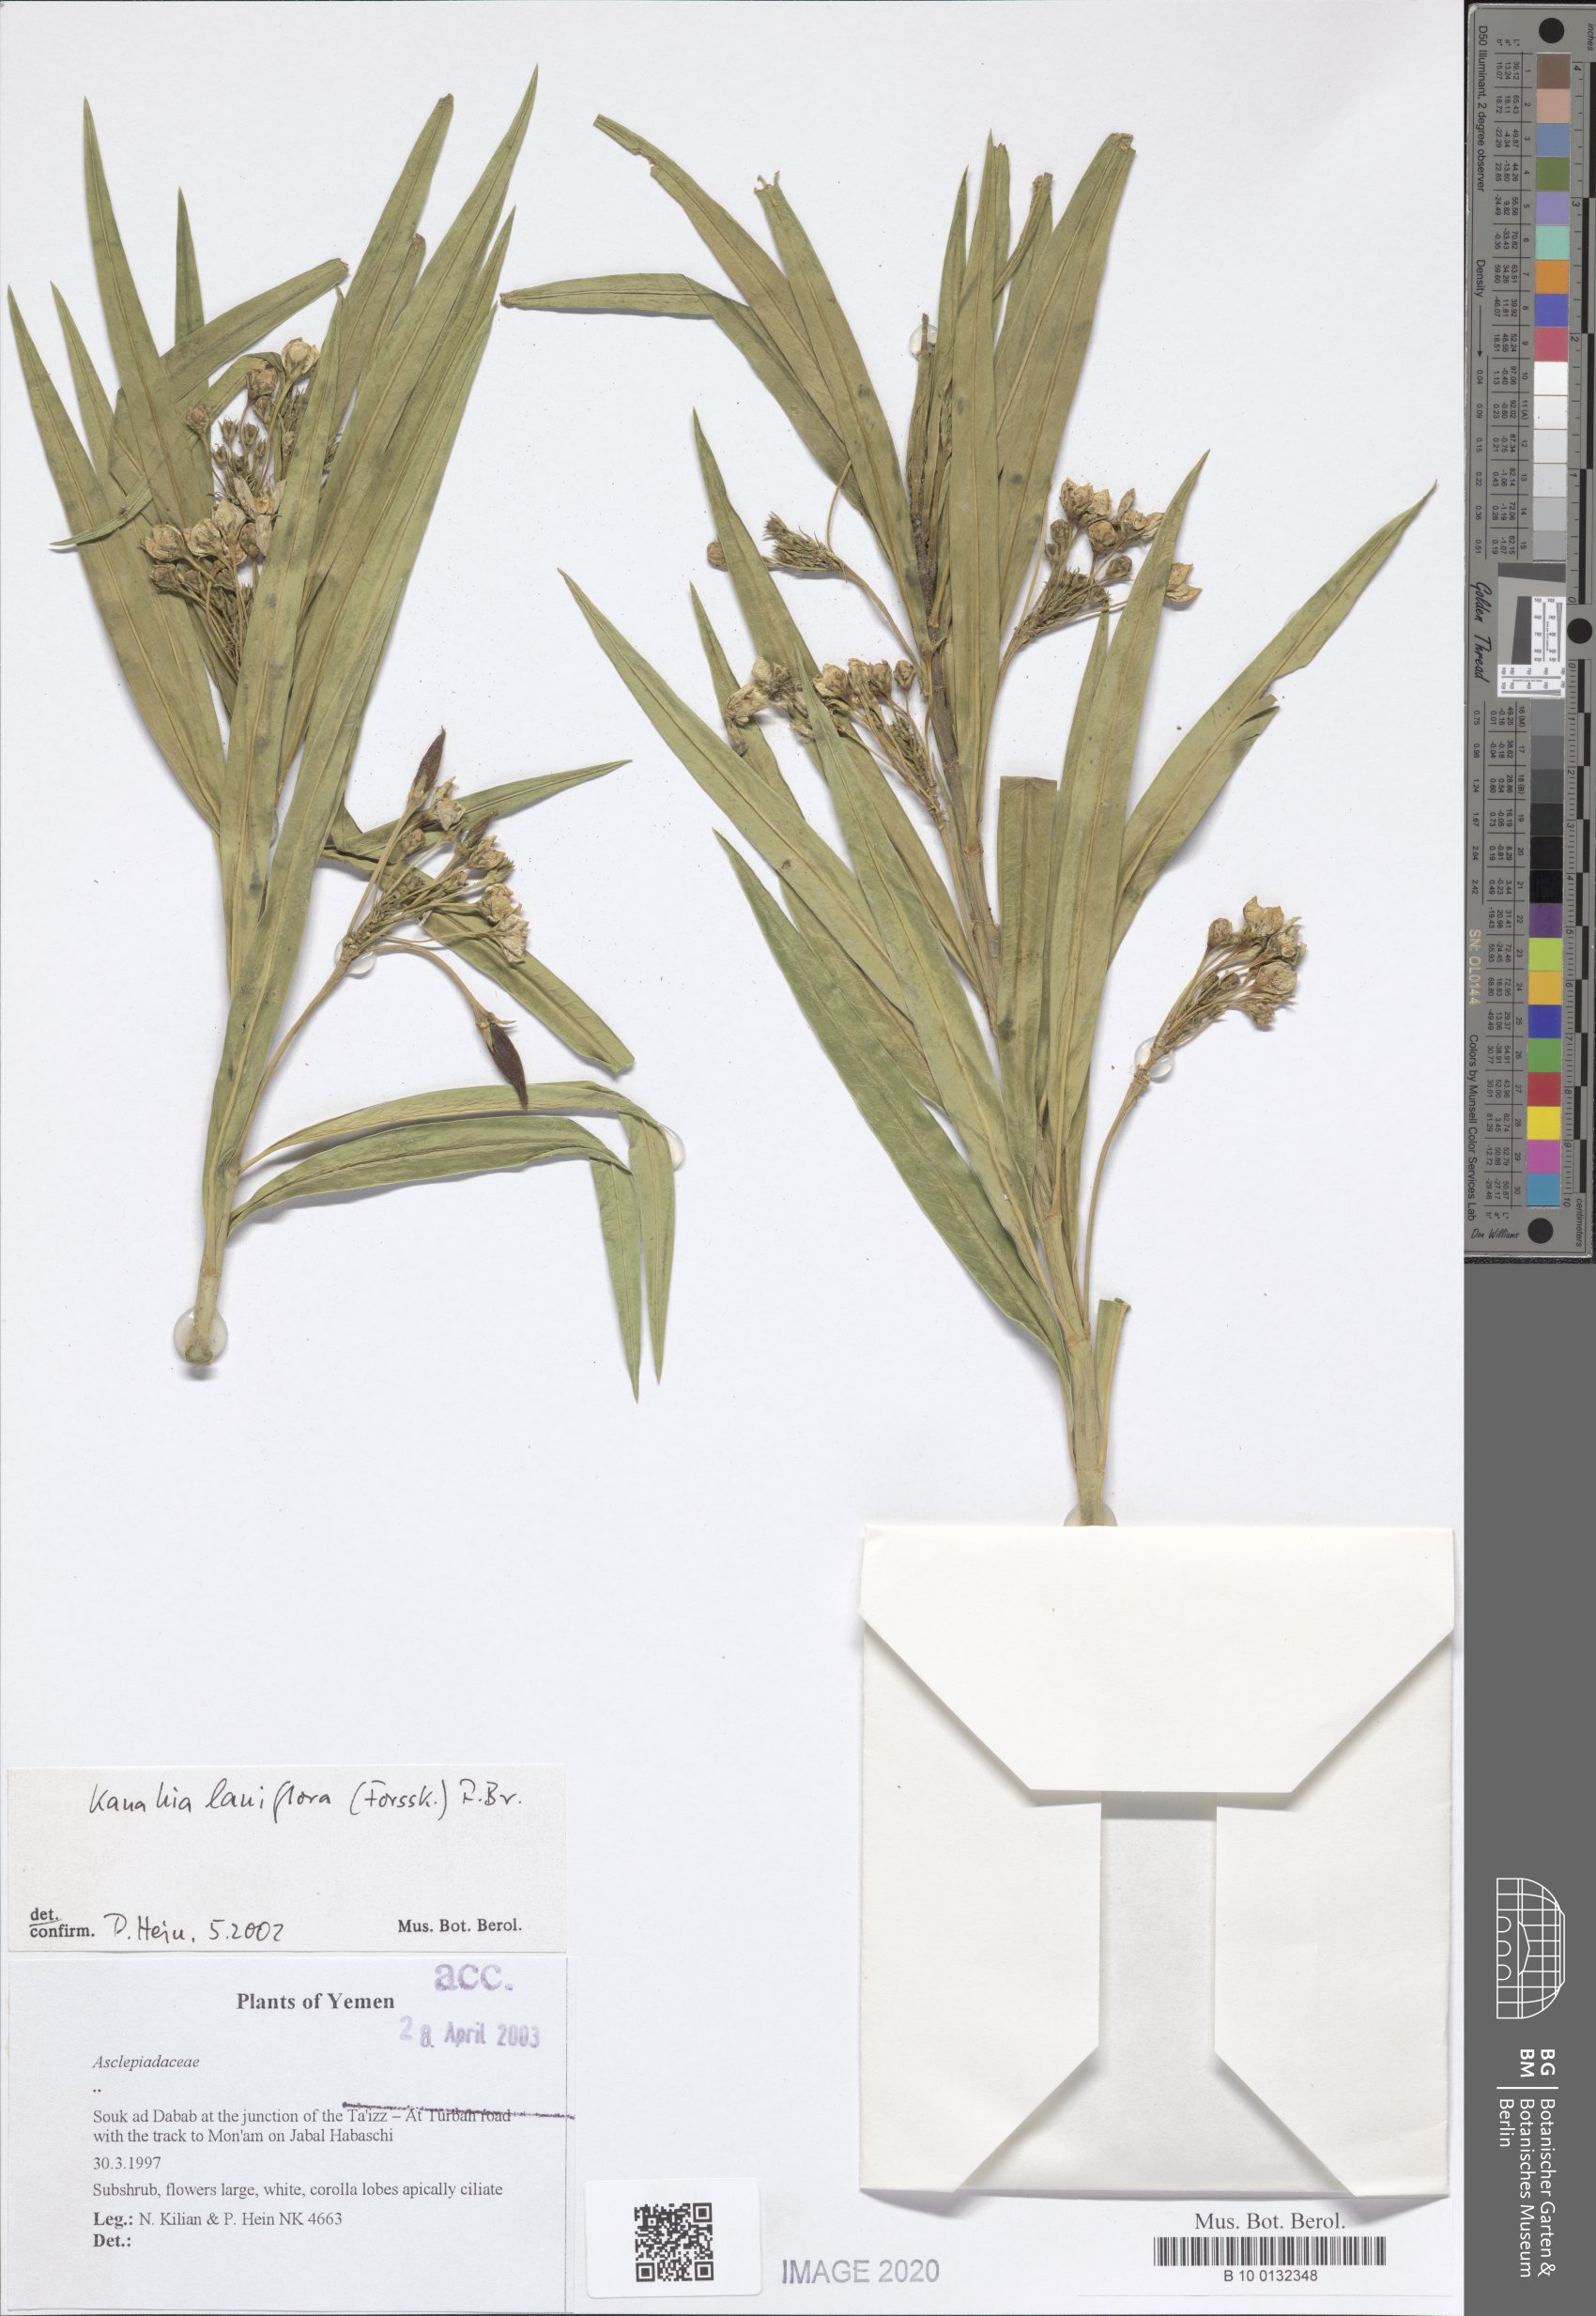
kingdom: Plantae
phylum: Tracheophyta
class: Magnoliopsida
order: Gentianales
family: Apocynaceae
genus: Kanahia
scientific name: Kanahia laniflora
